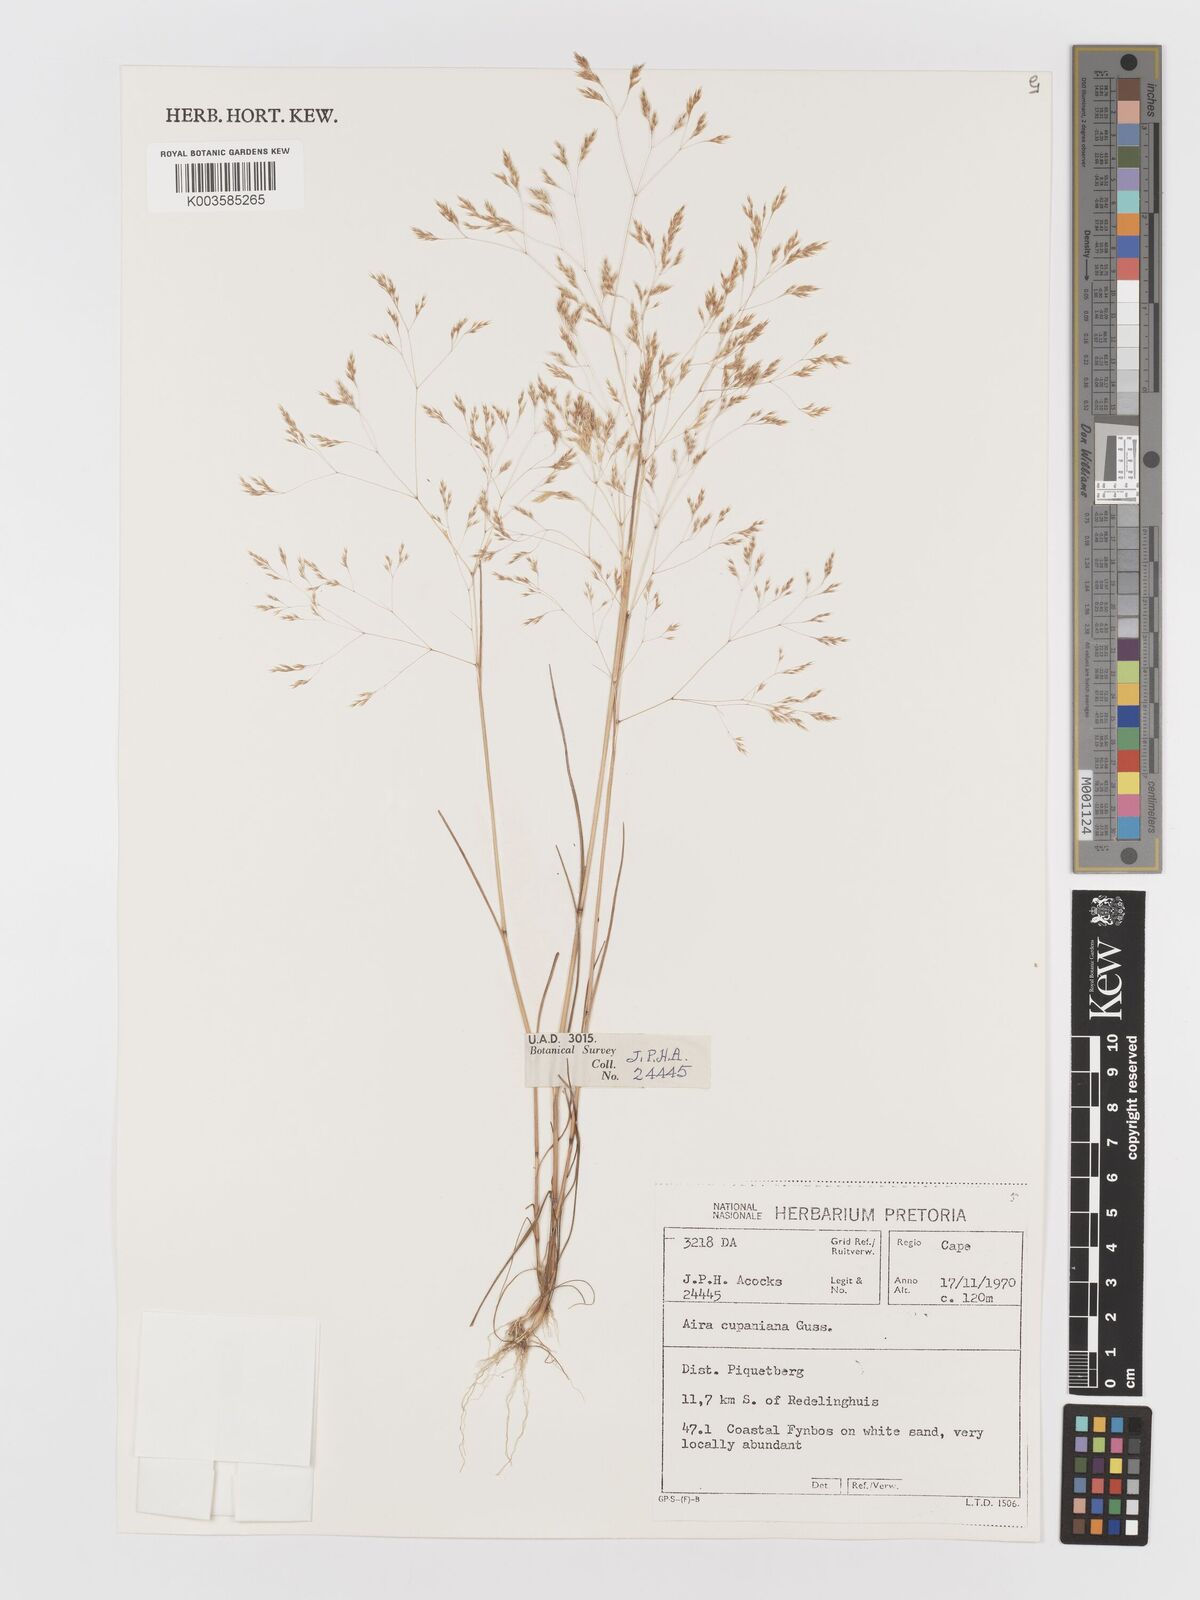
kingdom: Plantae
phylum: Tracheophyta
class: Liliopsida
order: Poales
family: Poaceae
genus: Aira
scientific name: Aira cupaniana
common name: Silver hairgrass
